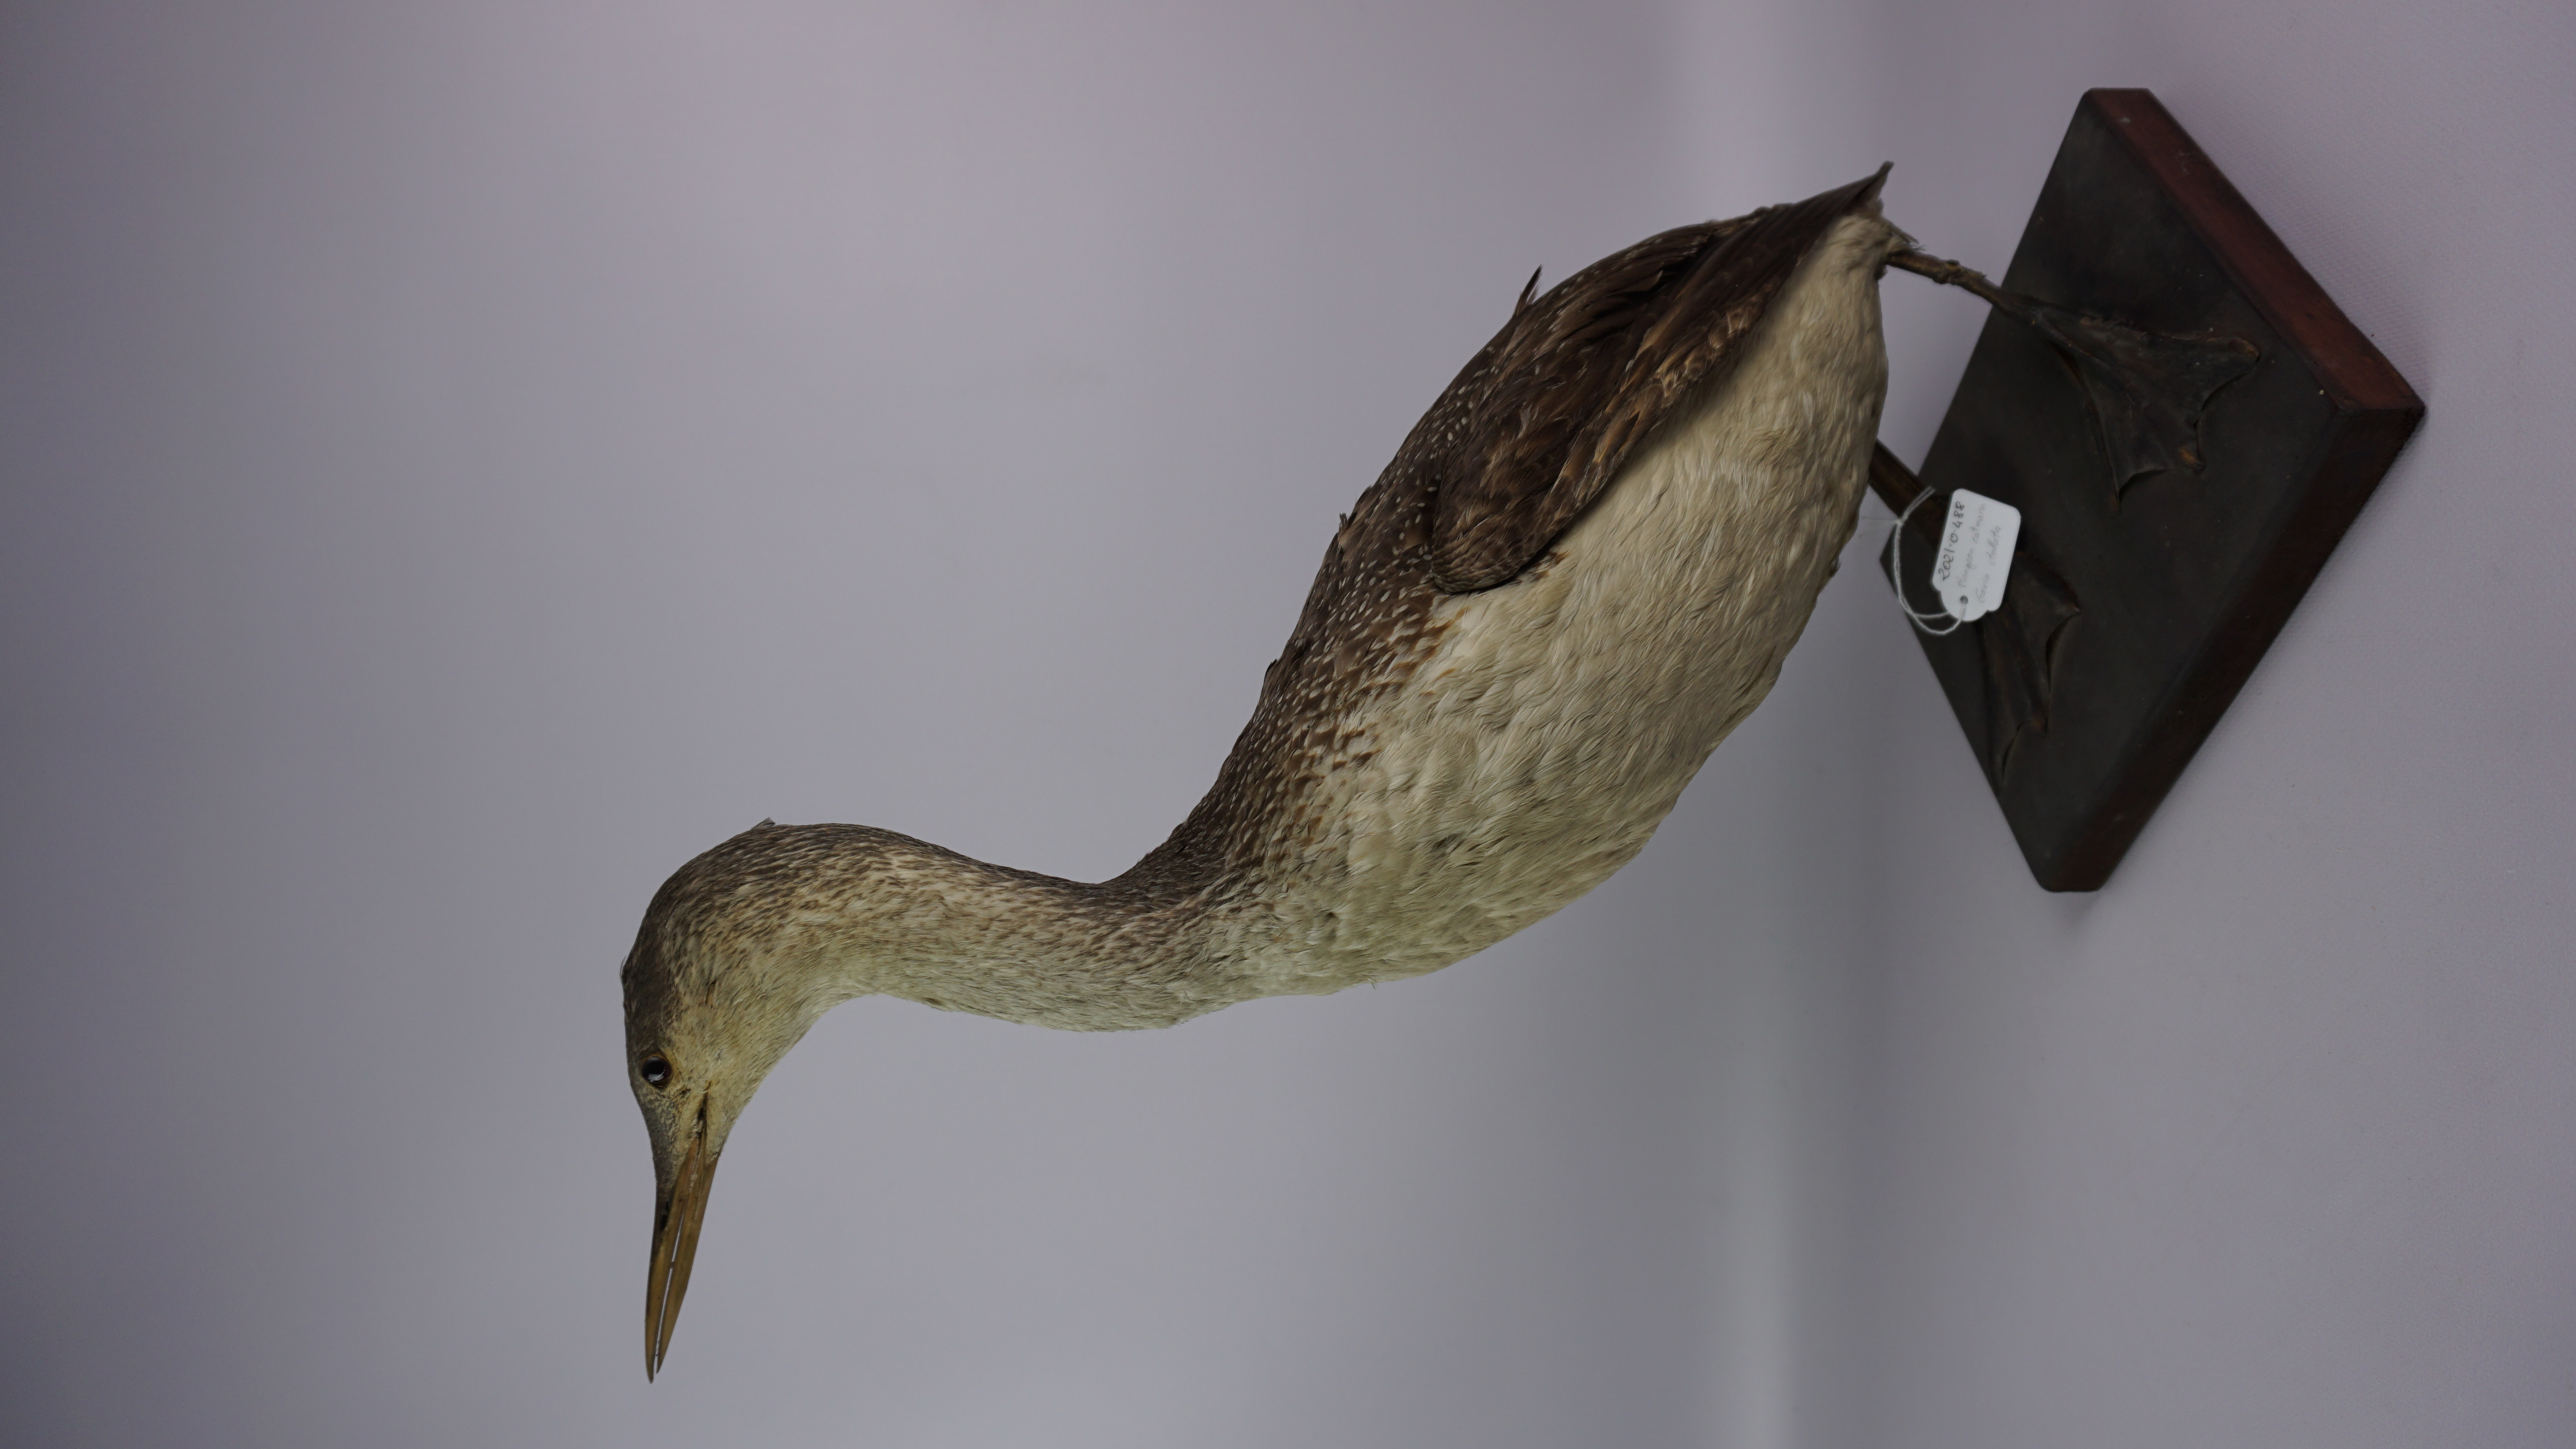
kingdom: Animalia
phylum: Chordata
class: Aves
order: Gaviiformes
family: Gaviidae
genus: Gavia
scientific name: Gavia stellata
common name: Red-throated loon
